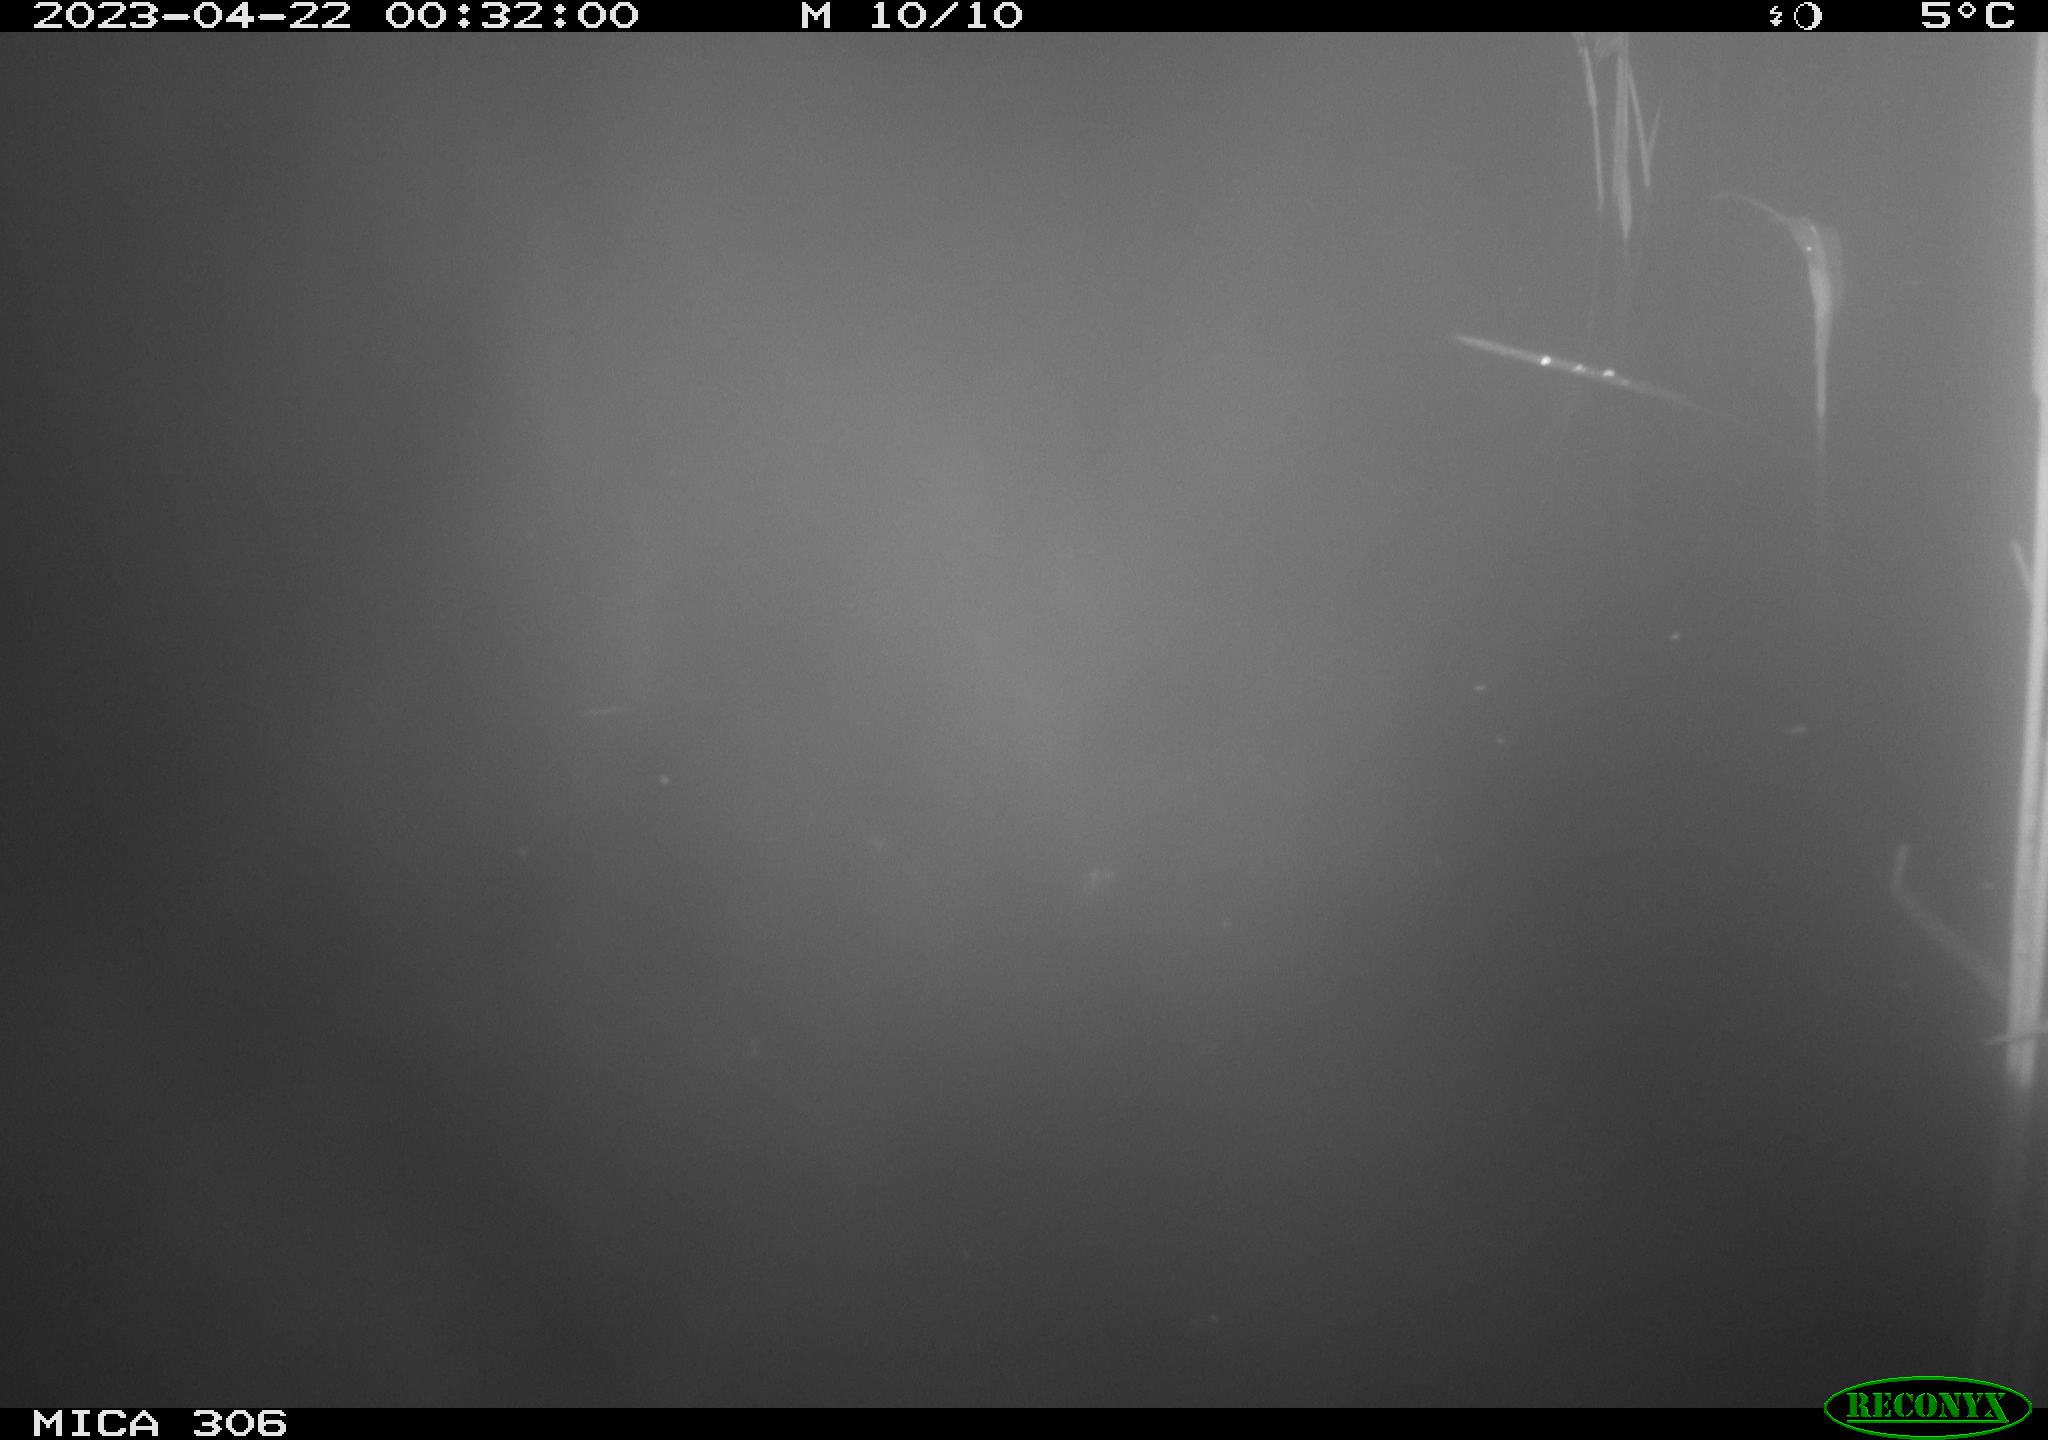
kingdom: Animalia
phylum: Chordata
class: Aves
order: Anseriformes
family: Anatidae
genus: Anas
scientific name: Anas
